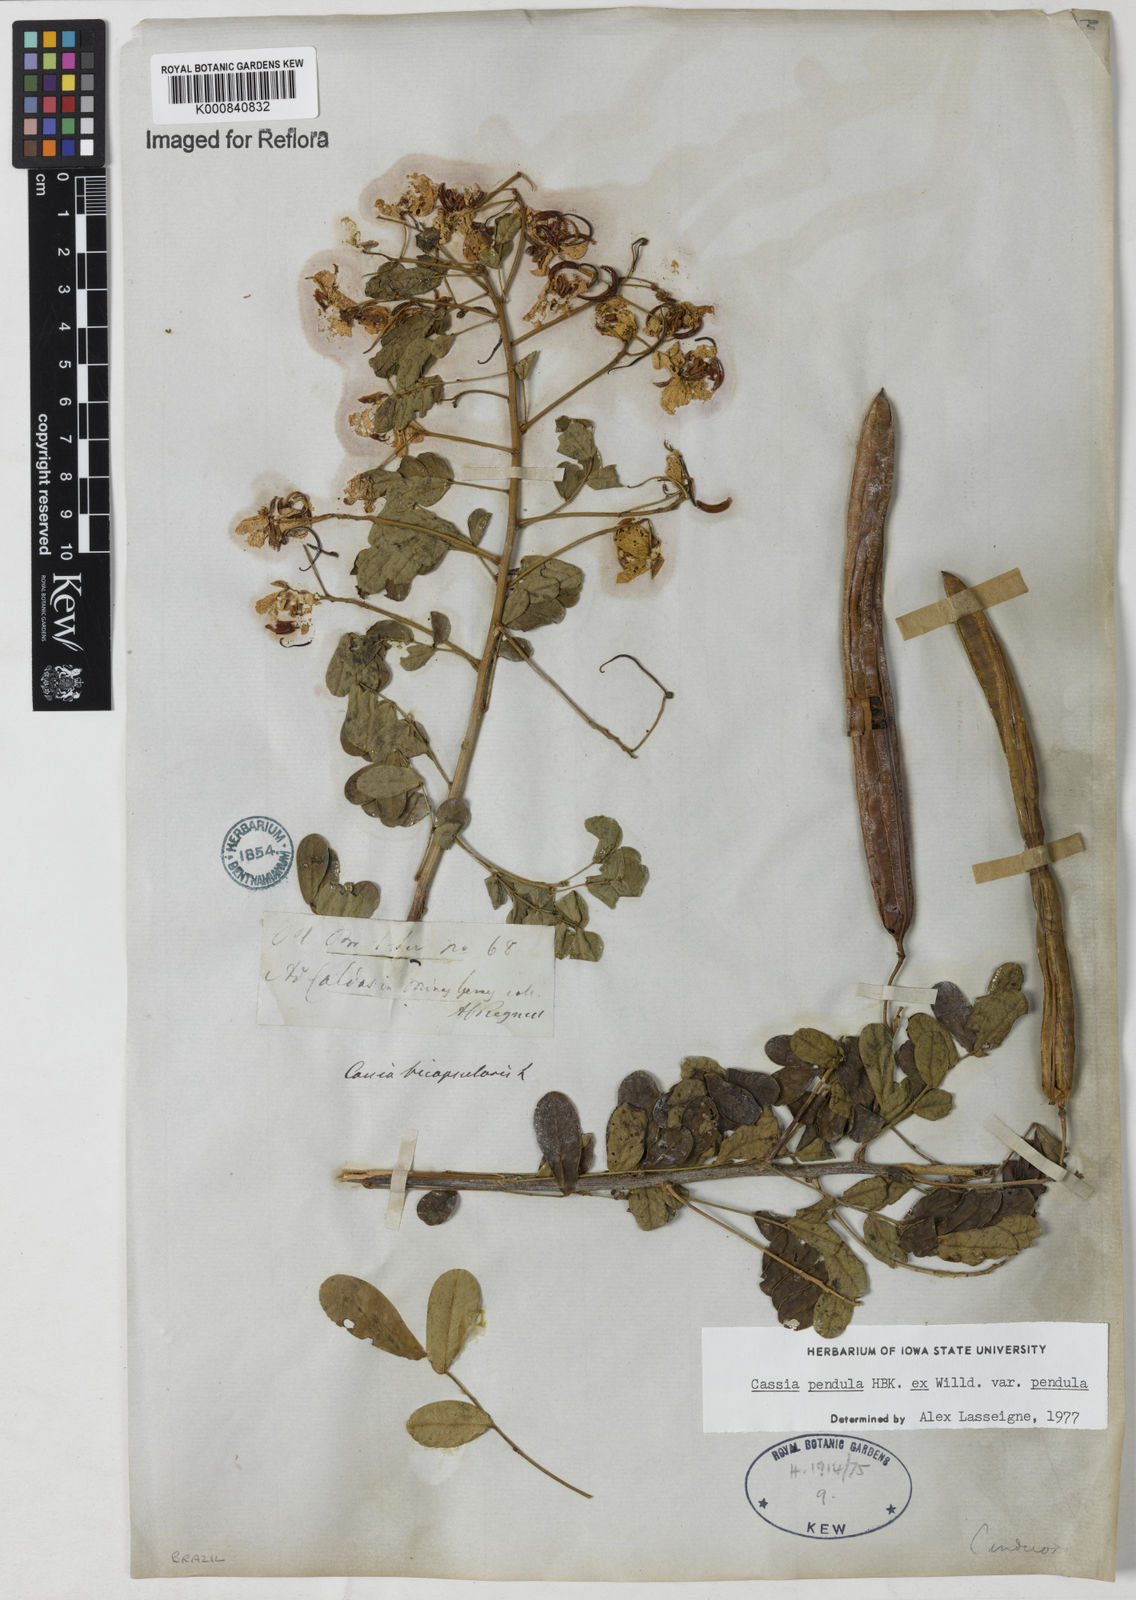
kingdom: Plantae
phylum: Tracheophyta
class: Magnoliopsida
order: Fabales
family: Fabaceae
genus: Senna
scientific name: Senna pendula
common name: Easter cassia
